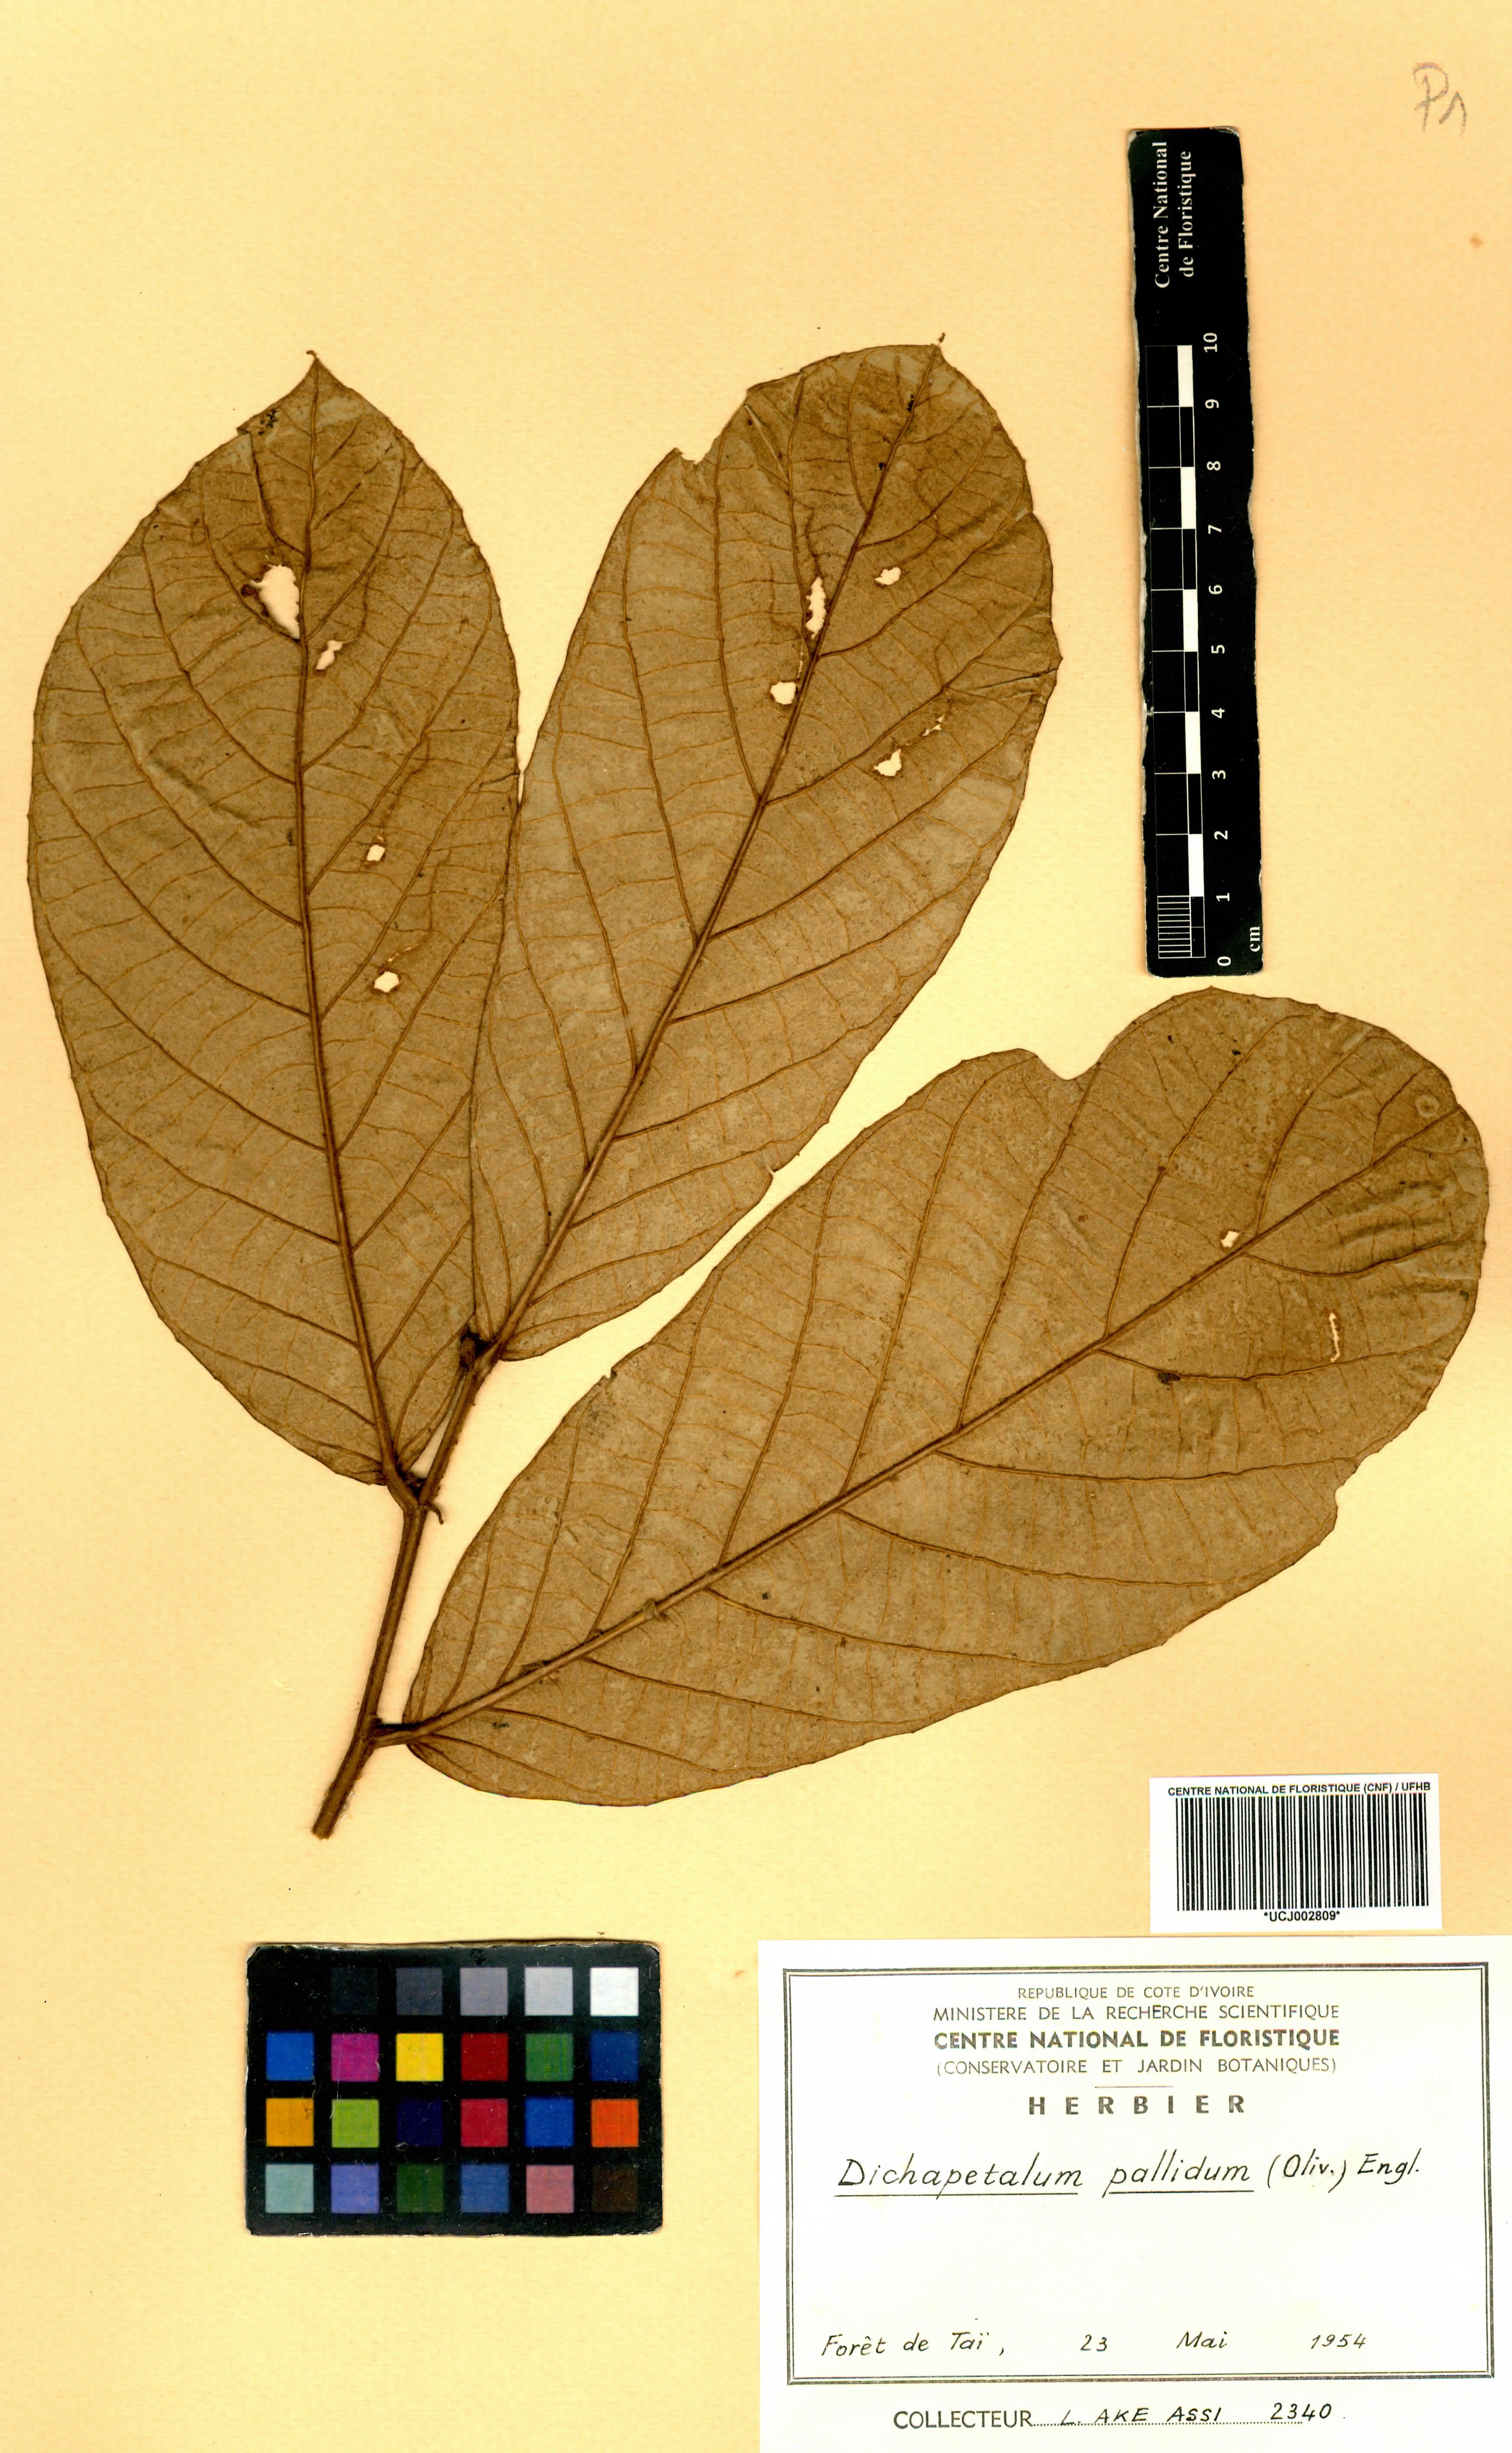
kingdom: Plantae
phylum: Tracheophyta
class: Magnoliopsida
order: Malpighiales
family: Dichapetalaceae
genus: Dichapetalum
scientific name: Dichapetalum pallidum
